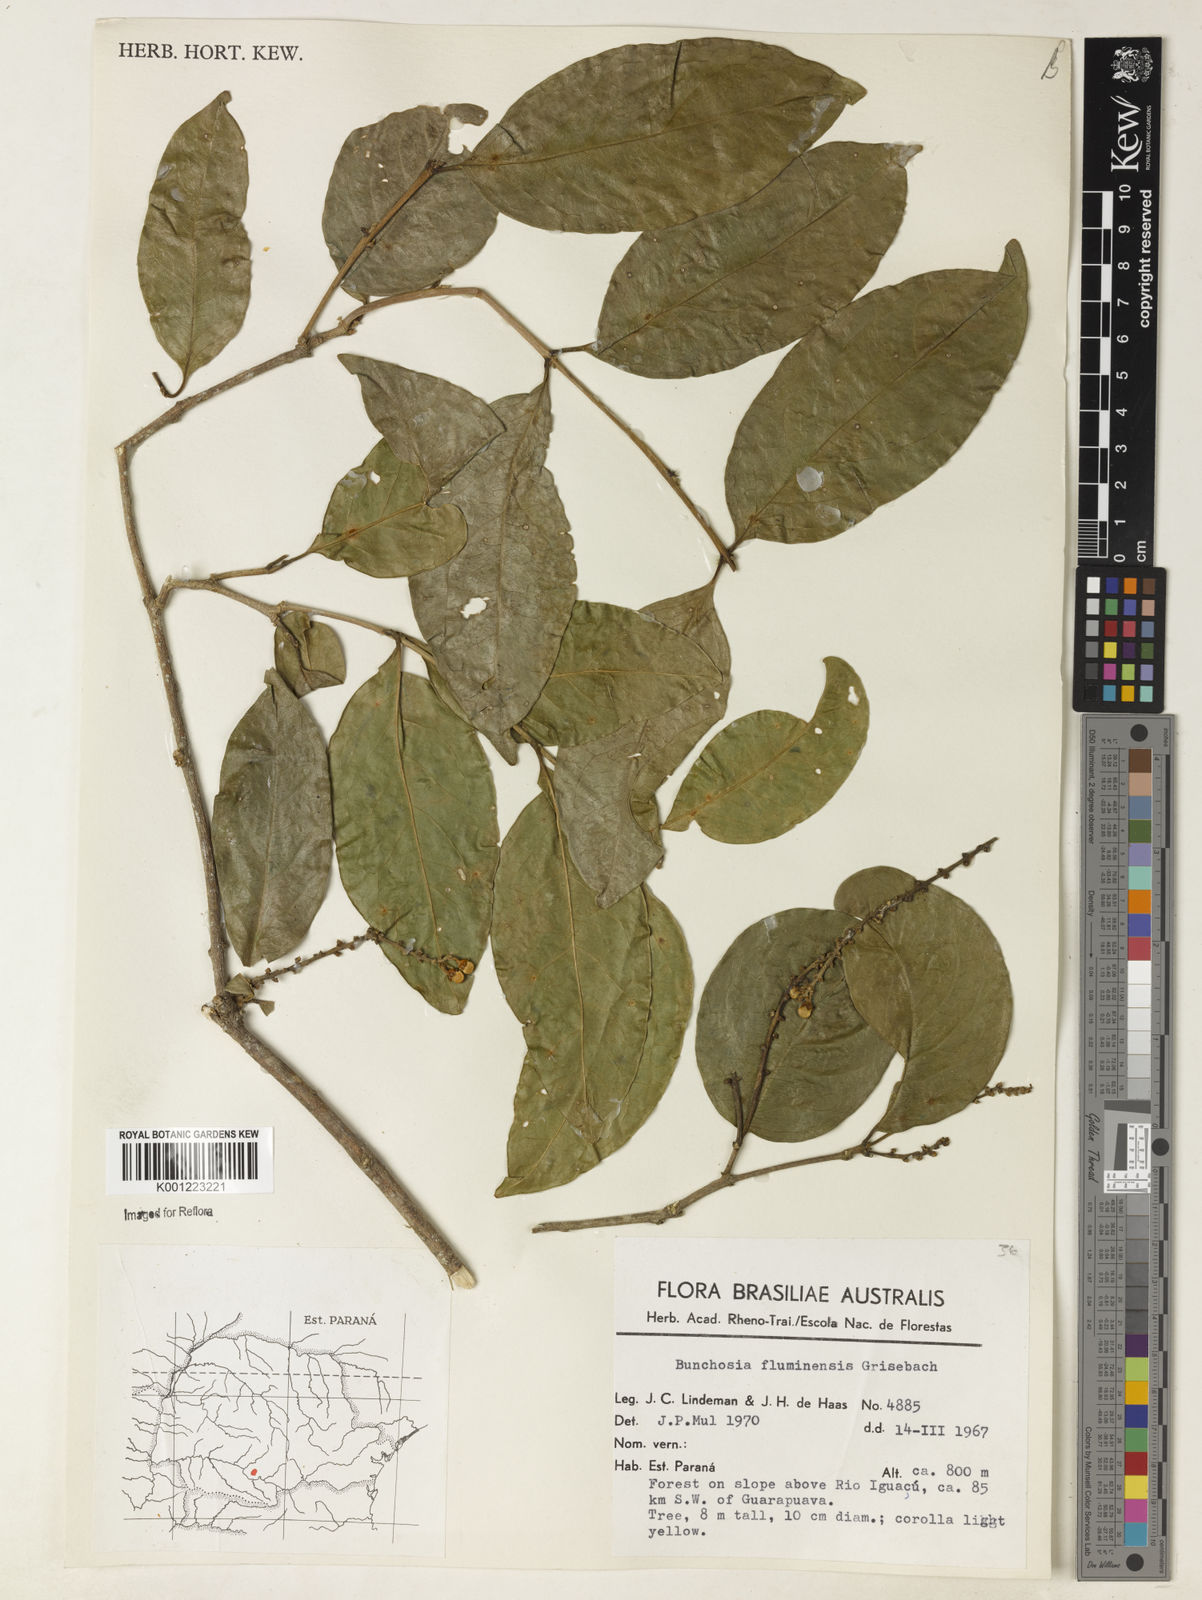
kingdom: Plantae
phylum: Tracheophyta
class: Magnoliopsida
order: Malpighiales
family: Malpighiaceae
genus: Bunchosia
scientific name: Bunchosia fluminensis
